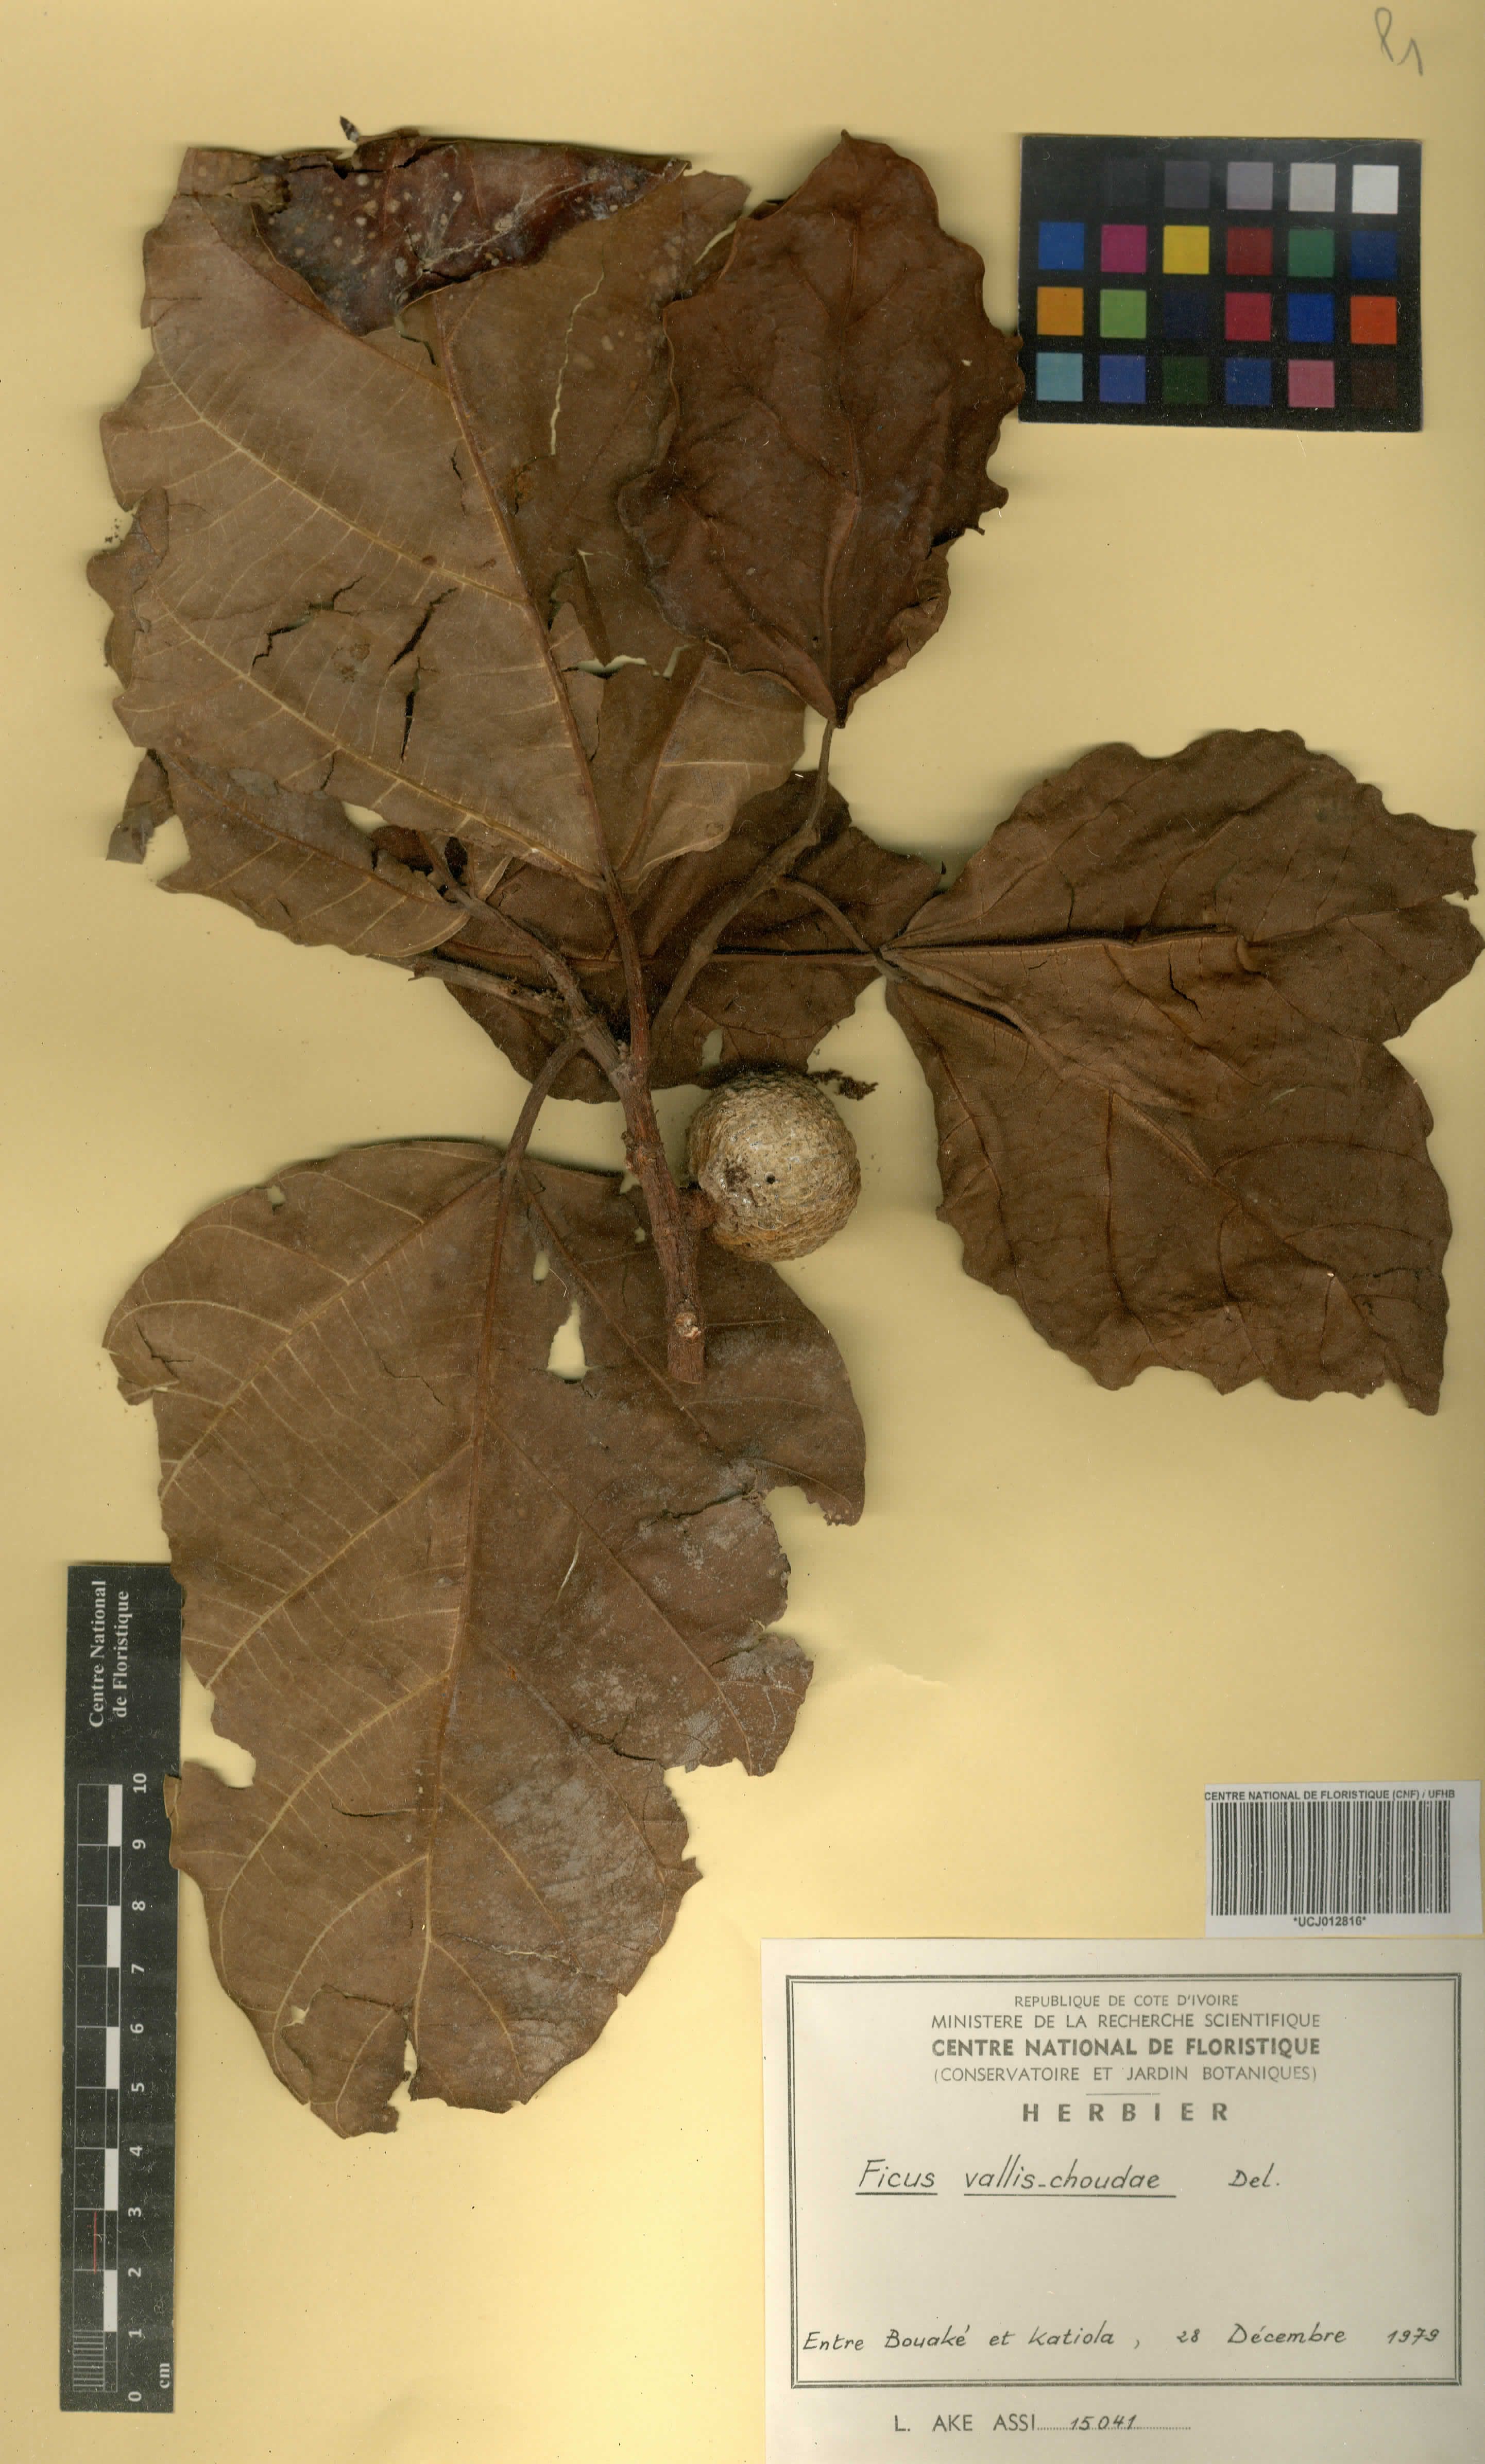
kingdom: Plantae
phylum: Tracheophyta
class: Magnoliopsida
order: Rosales
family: Moraceae
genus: Ficus
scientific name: Ficus vallis-choudae
